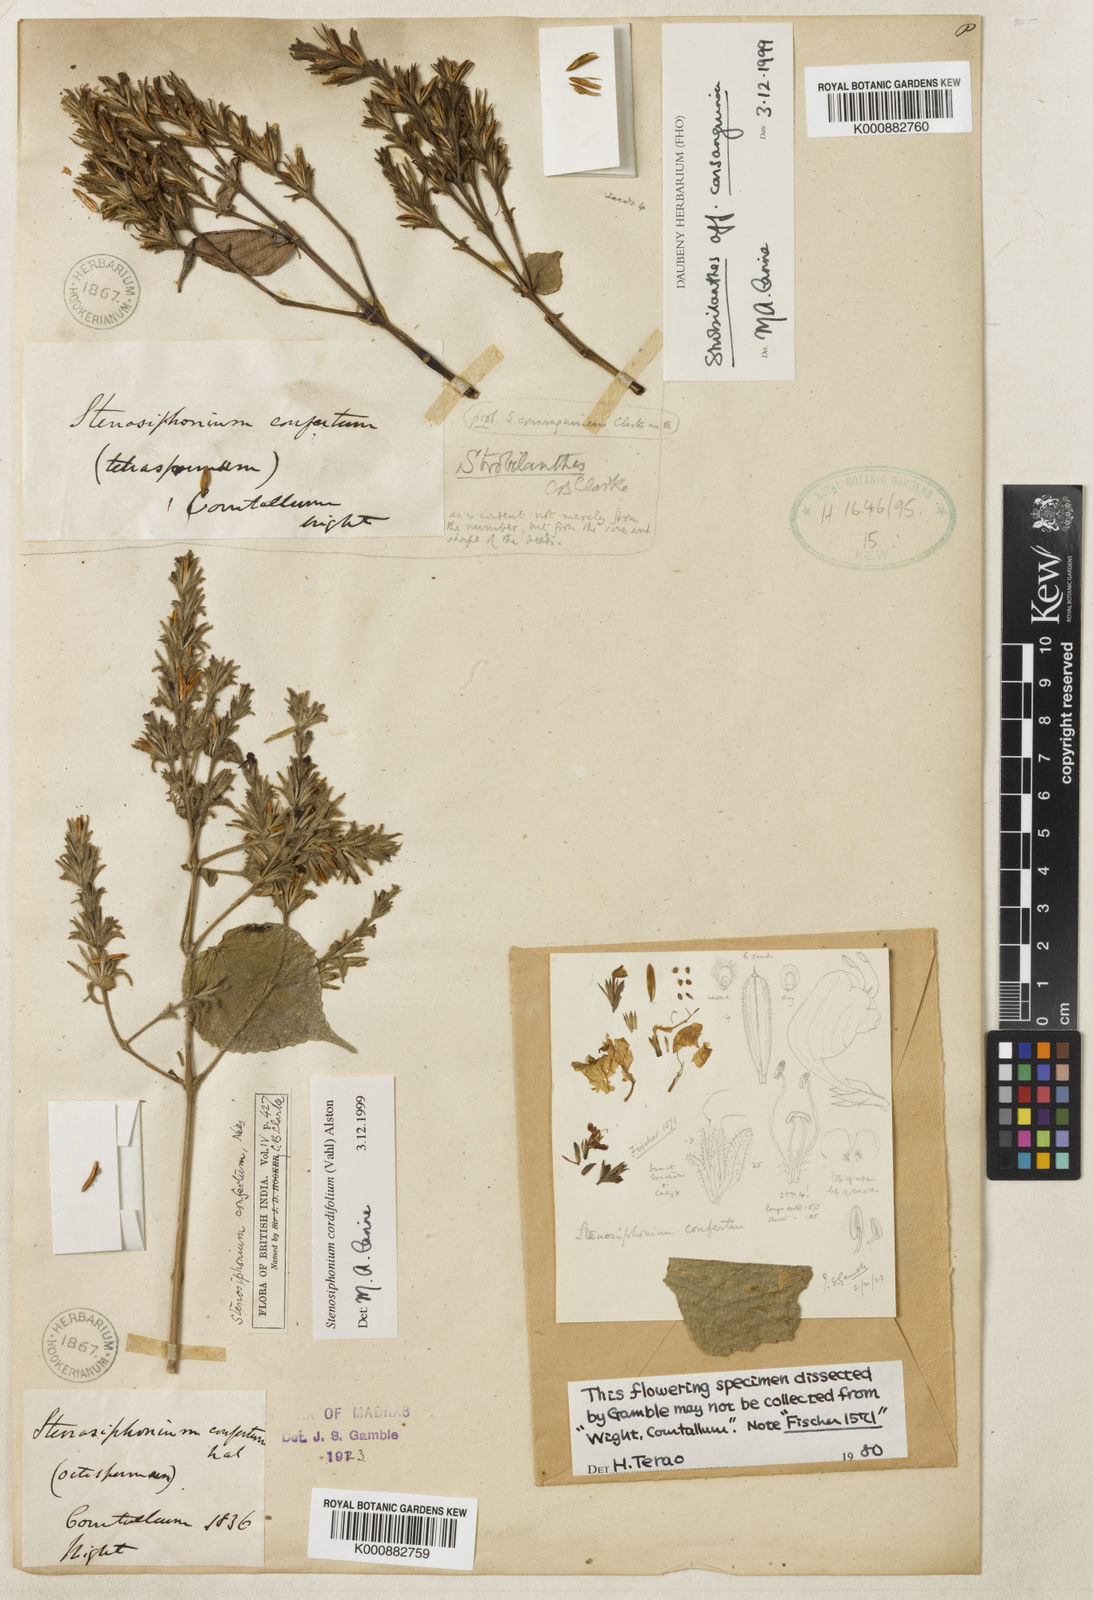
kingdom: Plantae
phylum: Tracheophyta
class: Magnoliopsida
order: Lamiales
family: Acanthaceae
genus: Strobilanthes
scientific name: Strobilanthes cordifolia
